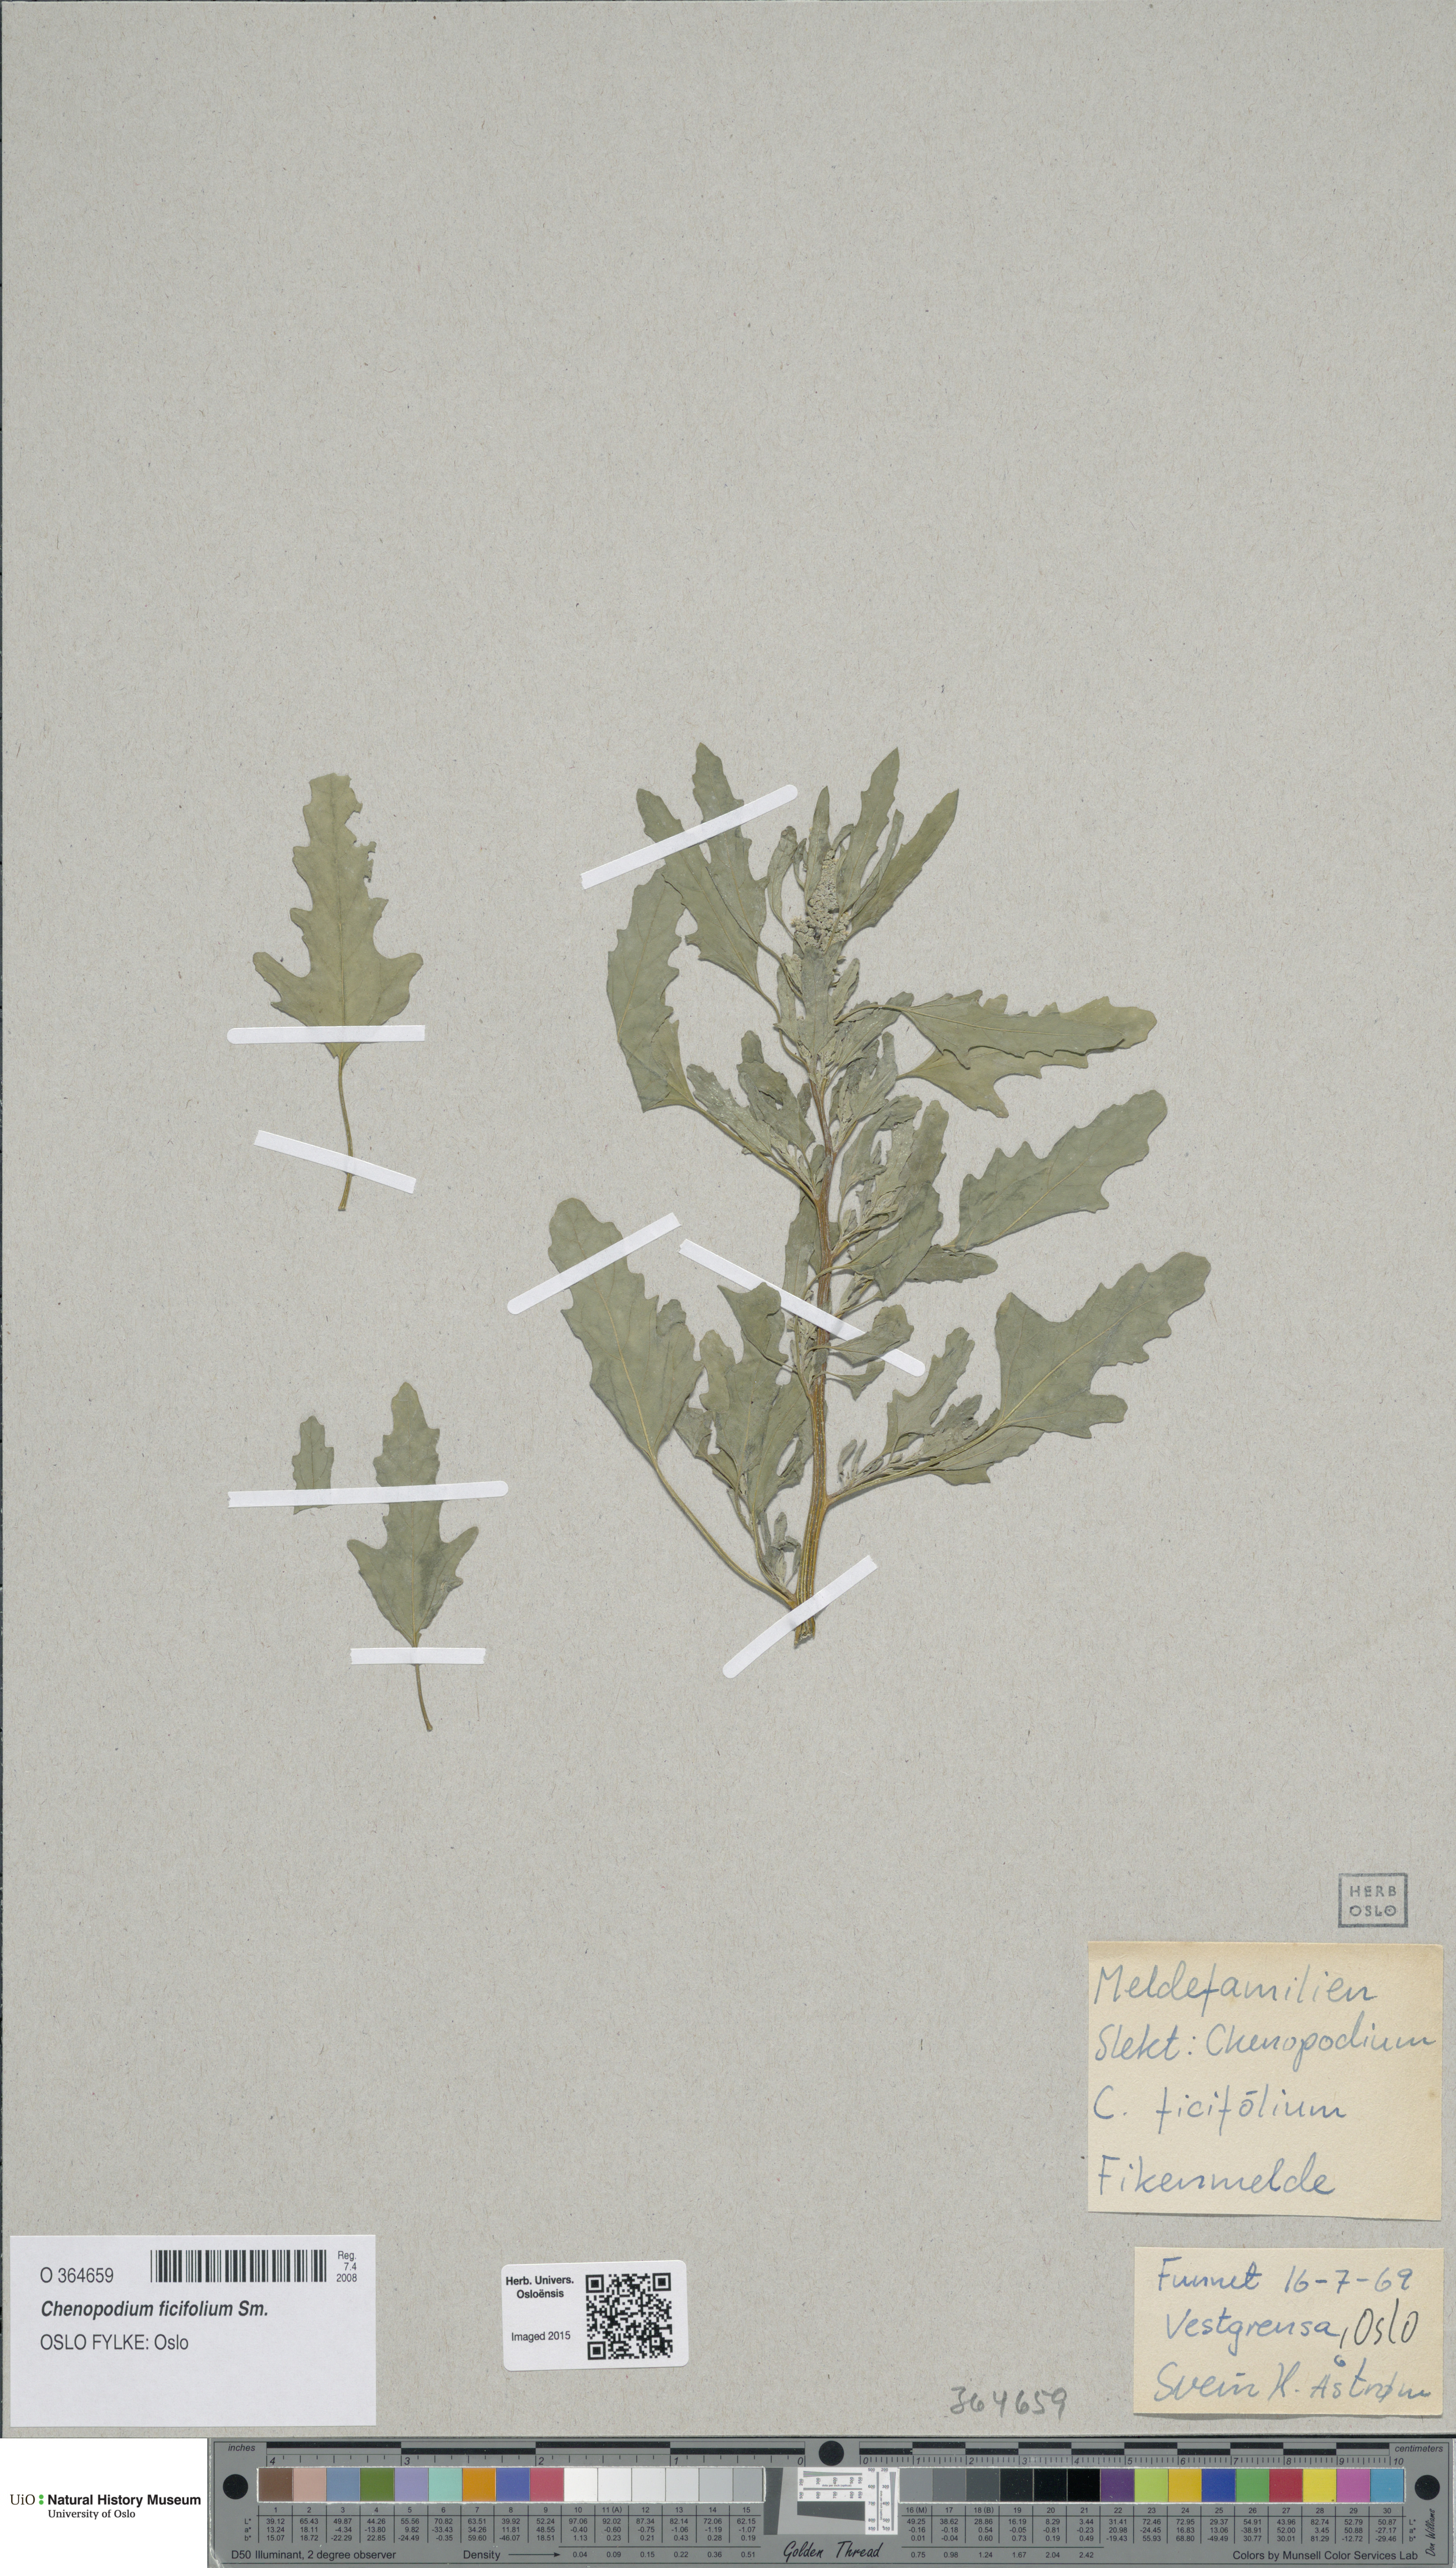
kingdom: Plantae
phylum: Tracheophyta
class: Magnoliopsida
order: Caryophyllales
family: Amaranthaceae
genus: Chenopodium
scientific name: Chenopodium ficifolium
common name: Fig-leaved goosefoot
